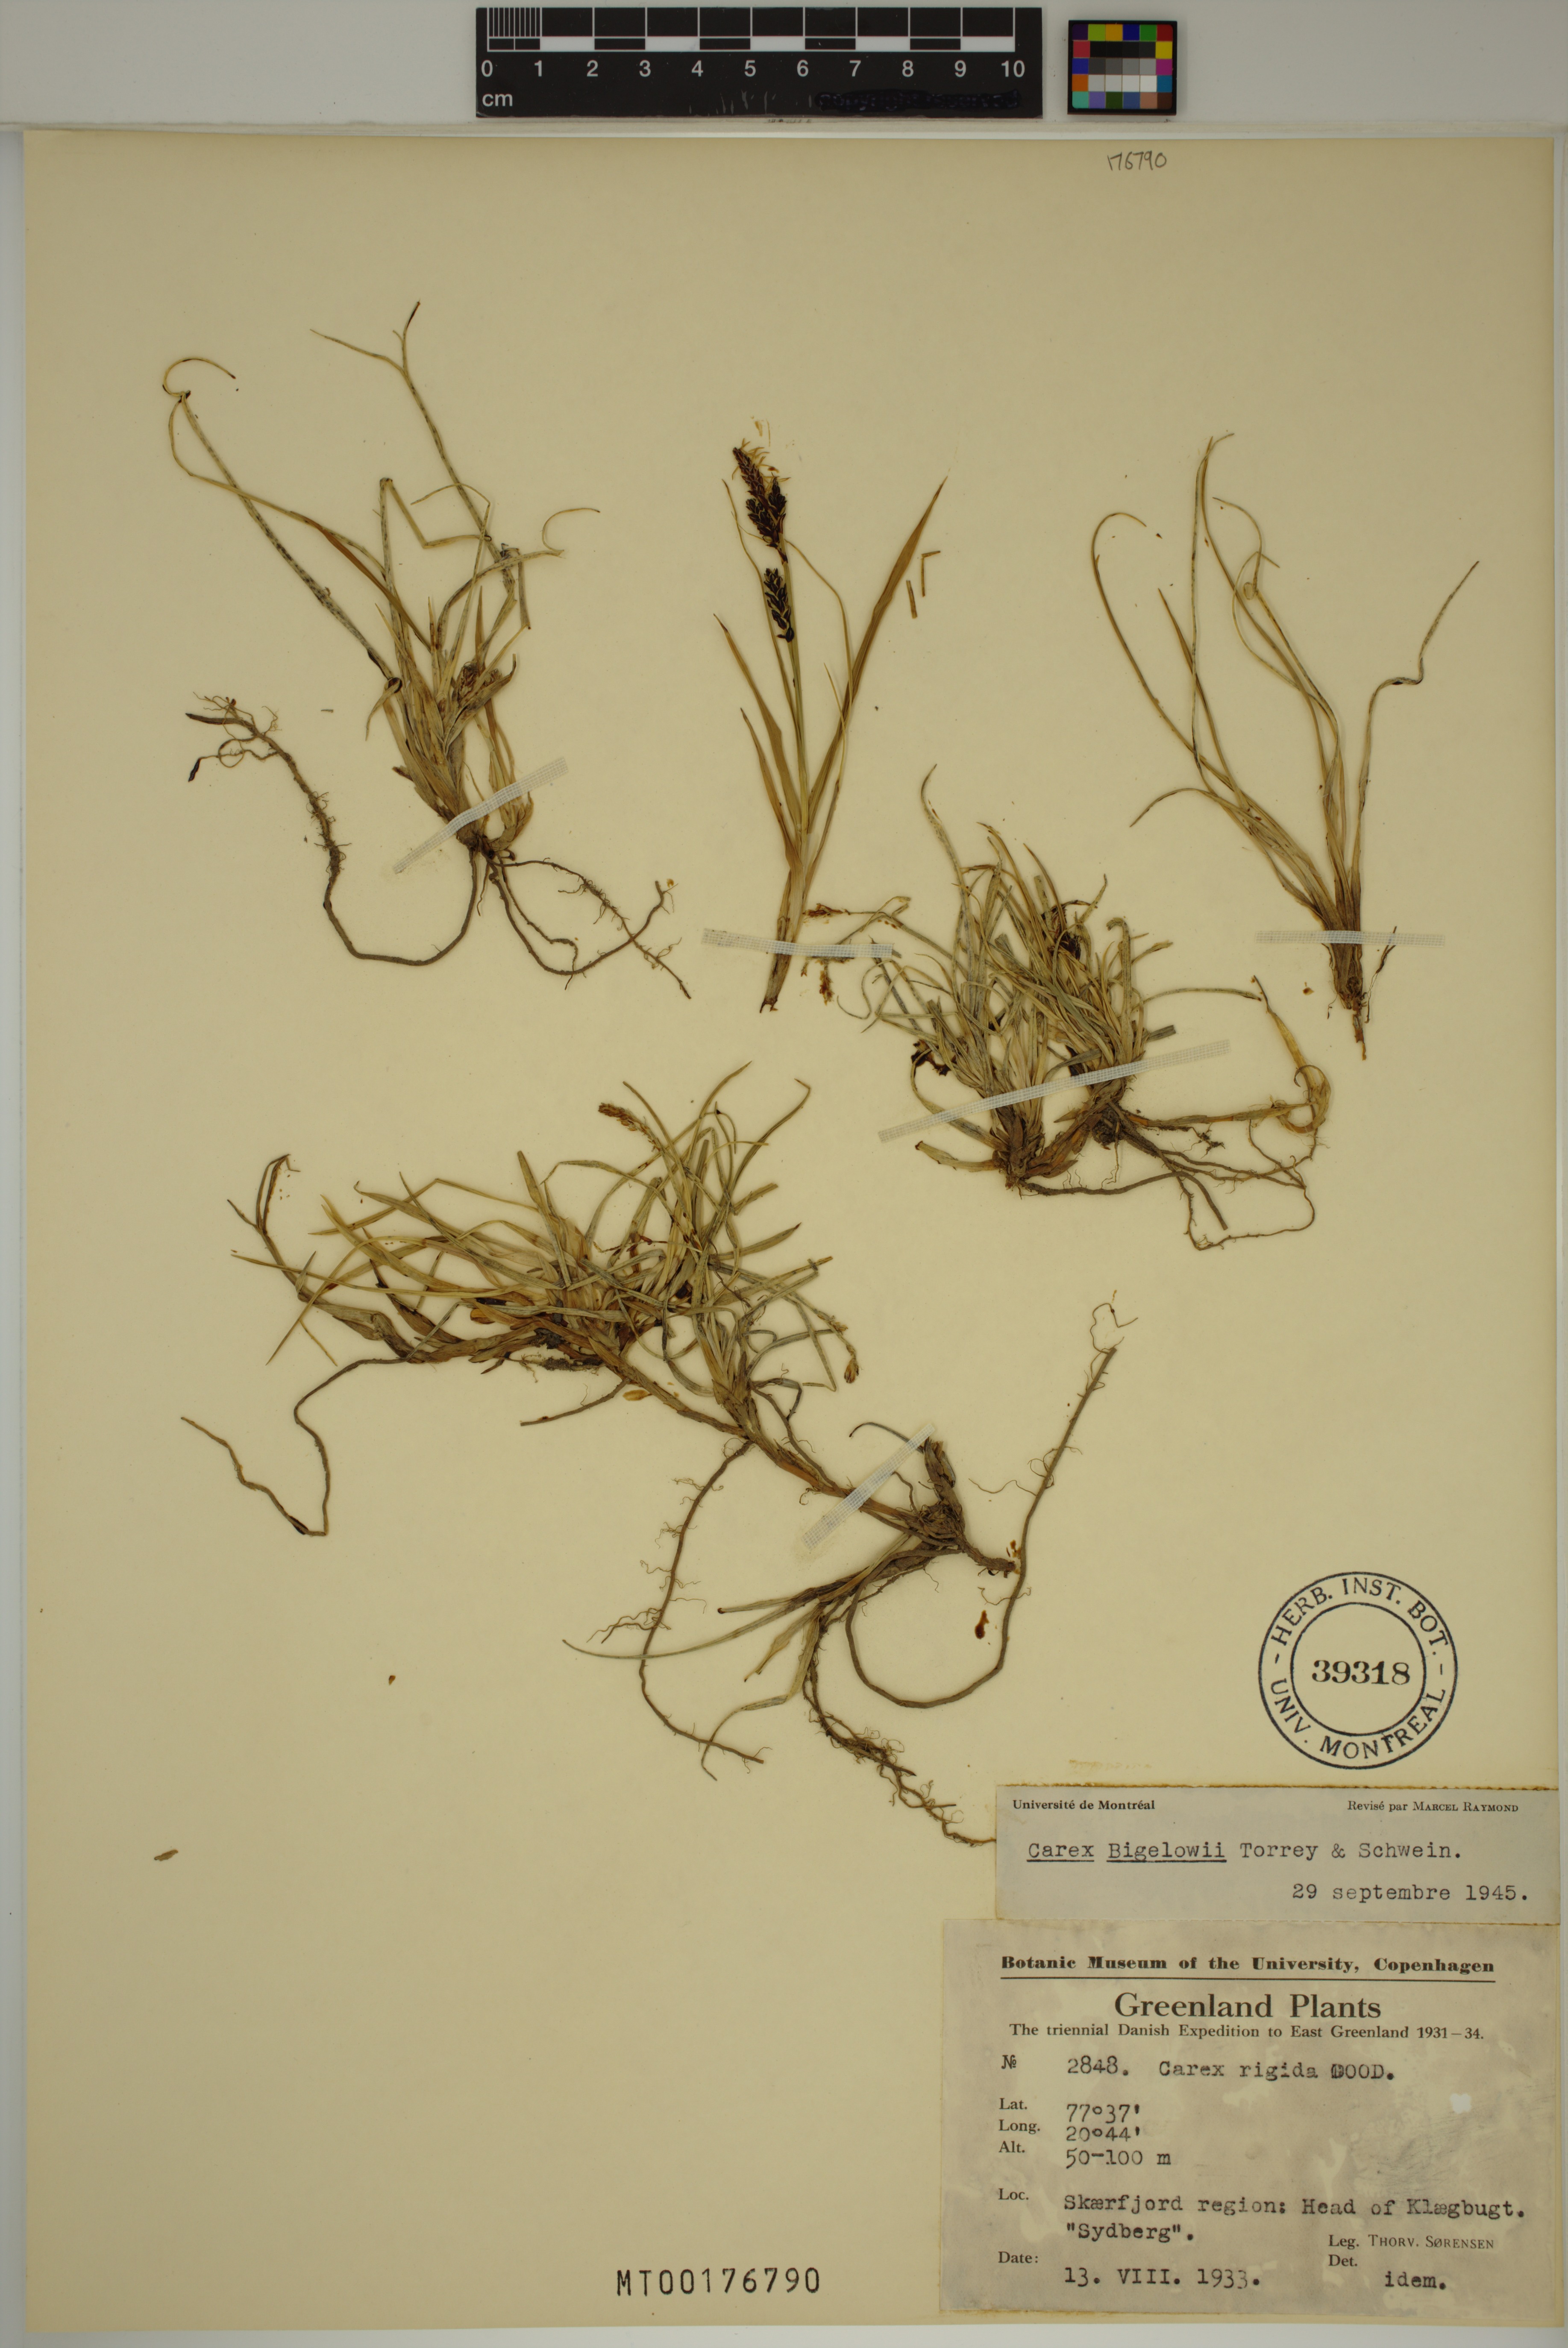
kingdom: Plantae
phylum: Tracheophyta
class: Liliopsida
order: Poales
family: Cyperaceae
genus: Carex
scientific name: Carex bigelowii
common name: Stiff sedge
